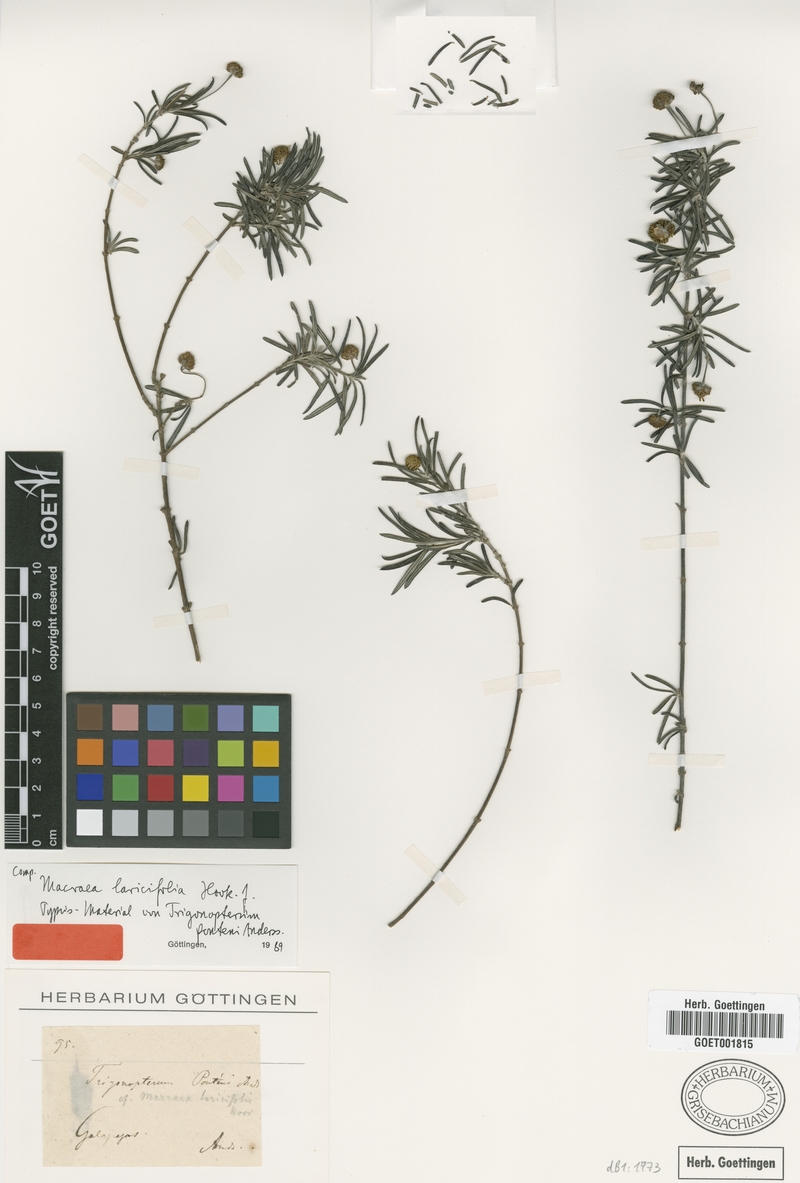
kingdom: Plantae
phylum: Tracheophyta
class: Magnoliopsida
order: Asterales
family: Asteraceae
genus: Trigonopterum
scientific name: Trigonopterum laricifolium
